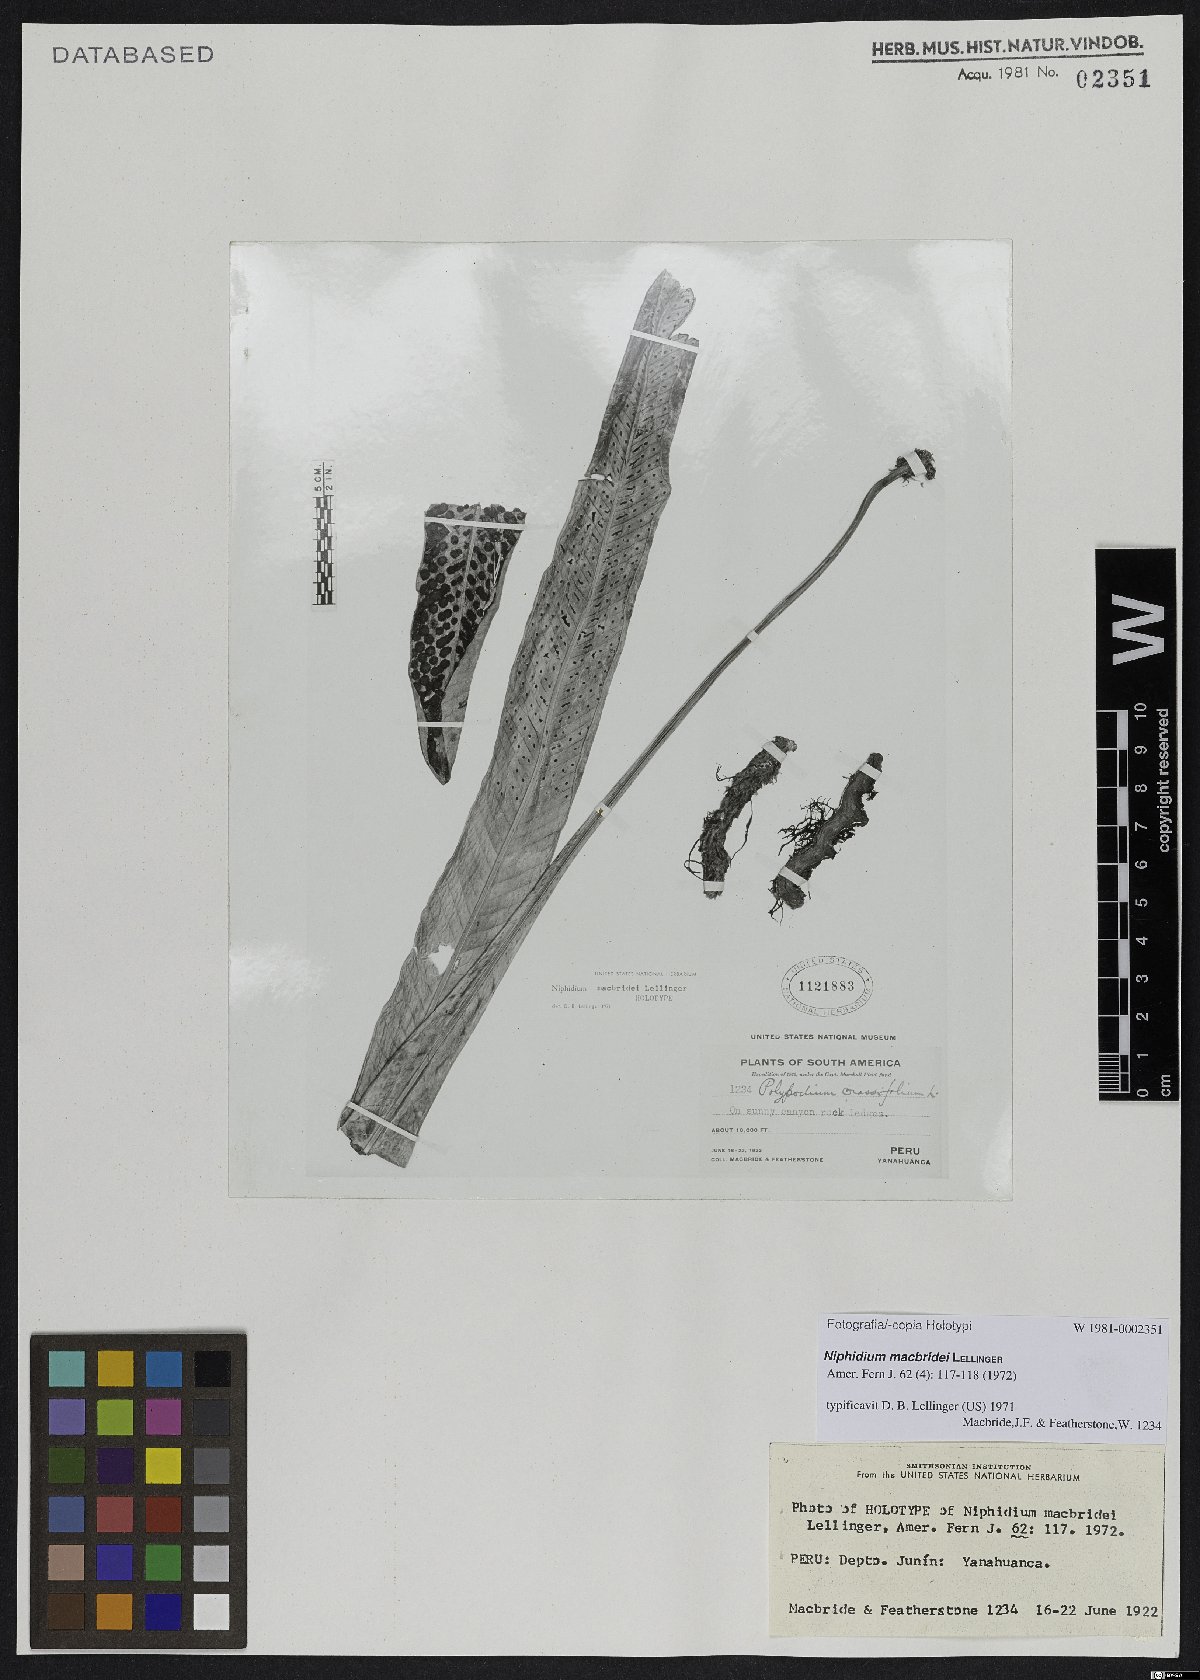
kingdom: Plantae
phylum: Tracheophyta
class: Polypodiopsida
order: Polypodiales
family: Polypodiaceae
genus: Niphidium
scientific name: Niphidium macbridei
